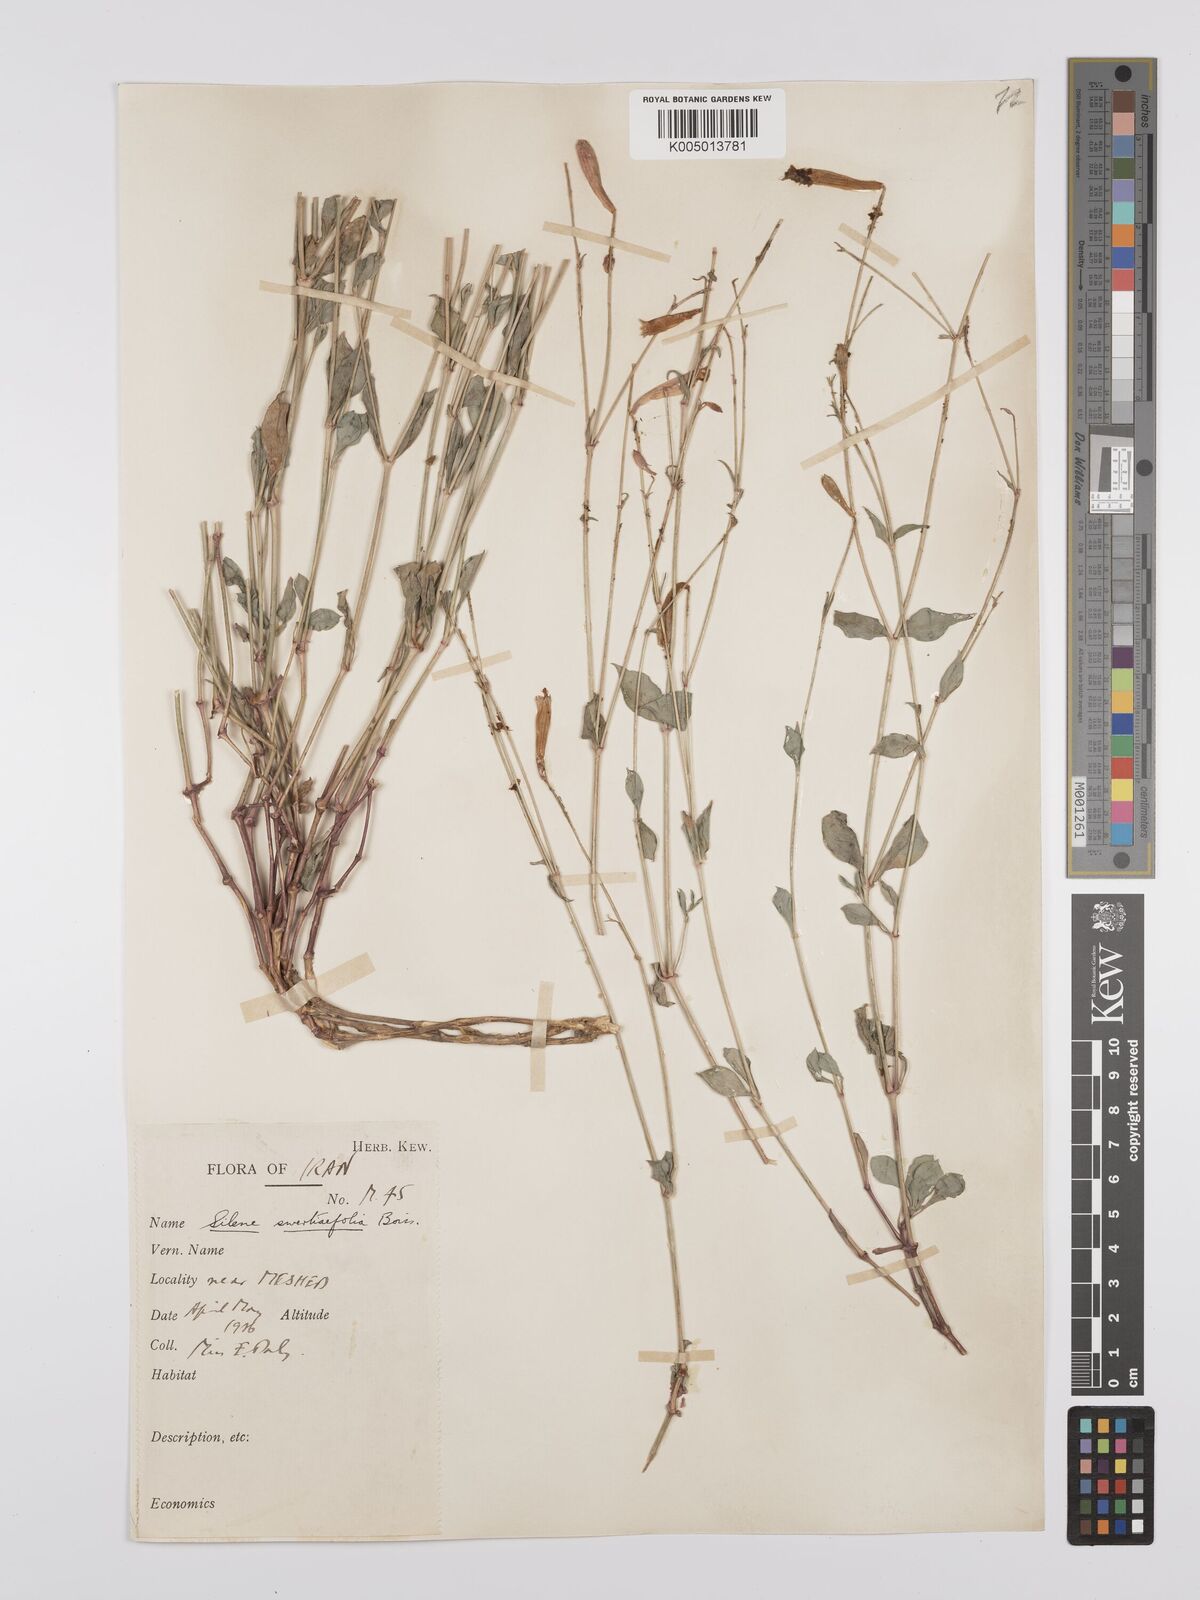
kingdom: Plantae
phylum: Tracheophyta
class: Magnoliopsida
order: Caryophyllales
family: Caryophyllaceae
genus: Silene
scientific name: Silene swertiifolia
